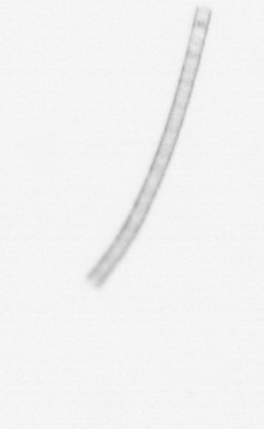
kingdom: Chromista
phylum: Ochrophyta
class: Bacillariophyceae
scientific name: Bacillariophyceae
